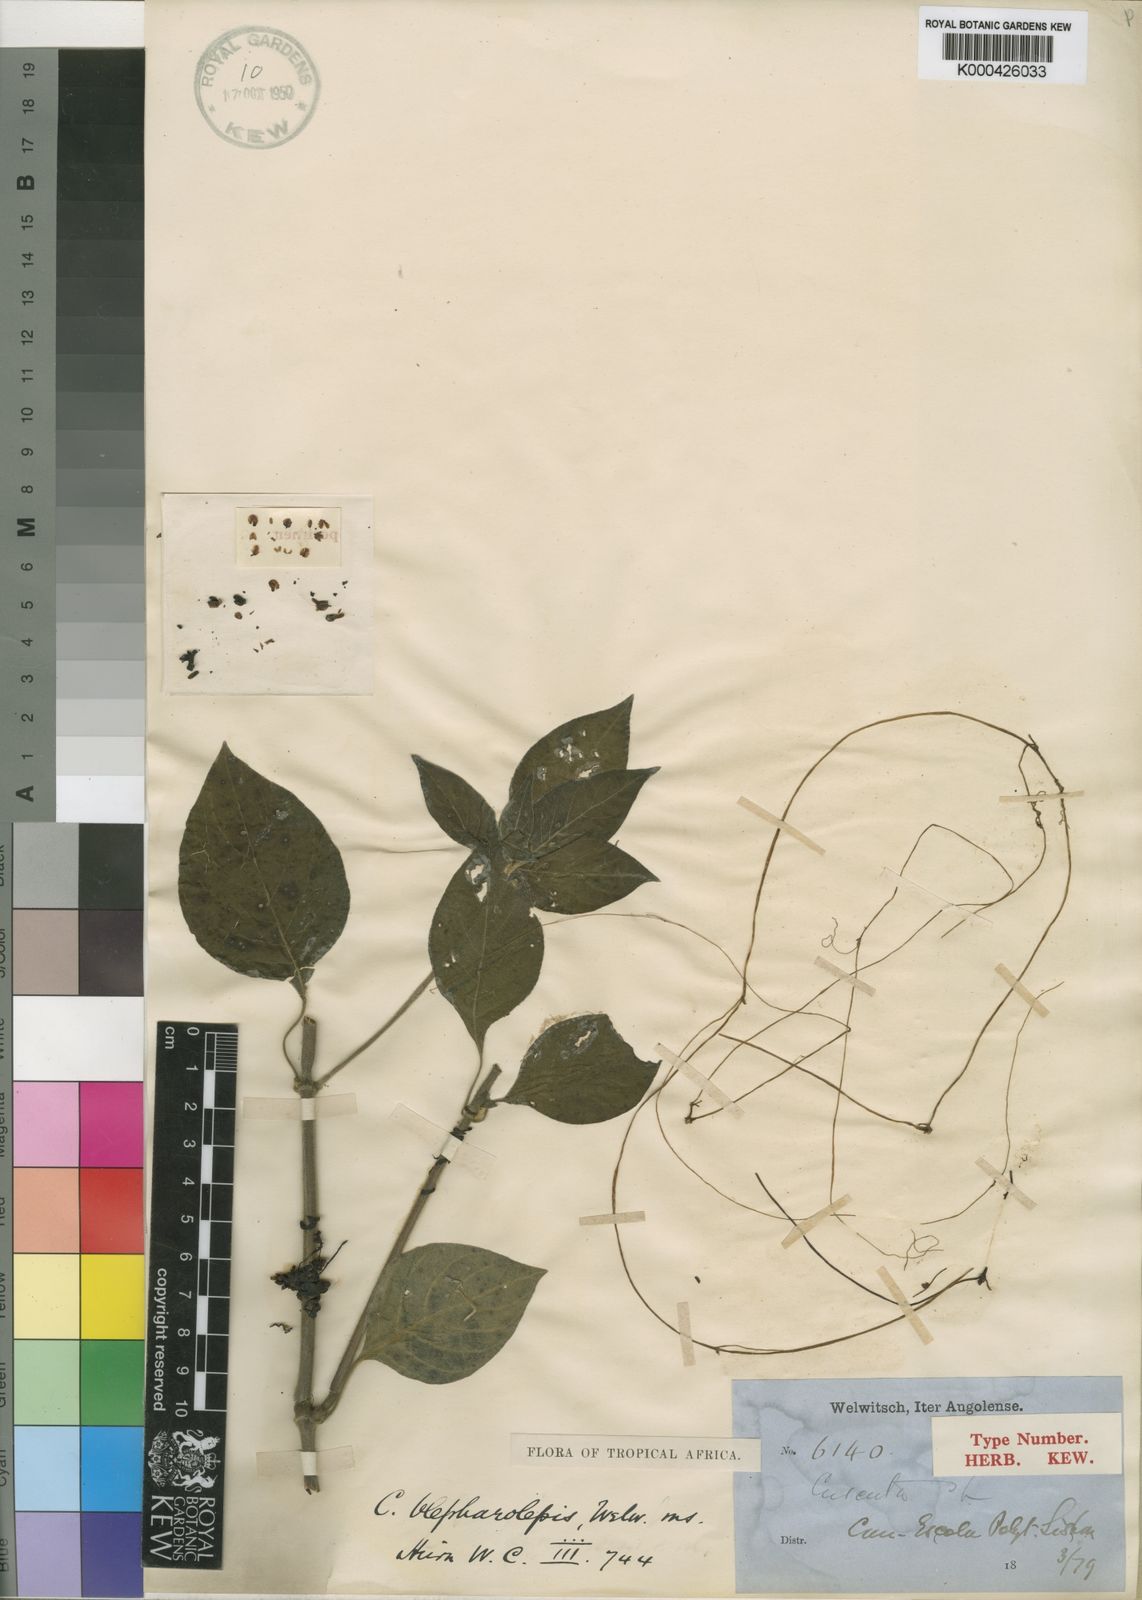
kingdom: Plantae
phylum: Tracheophyta
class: Magnoliopsida
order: Solanales
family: Convolvulaceae
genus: Cuscuta
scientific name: Cuscuta blepharolepis
